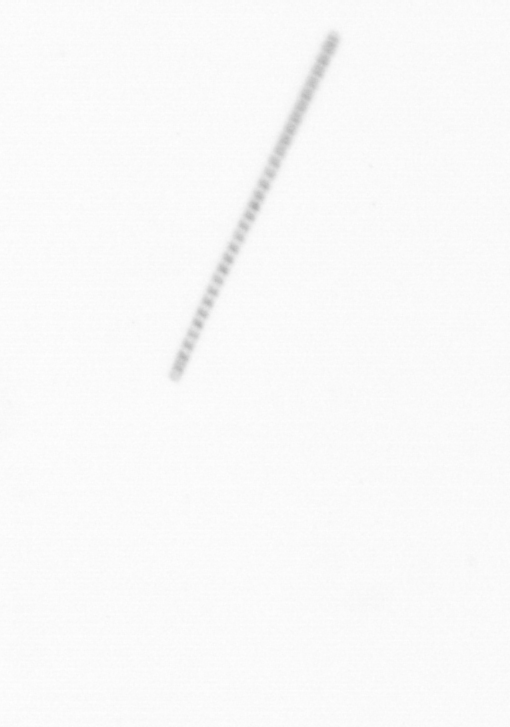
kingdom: Chromista
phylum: Ochrophyta
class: Bacillariophyceae
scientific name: Bacillariophyceae
